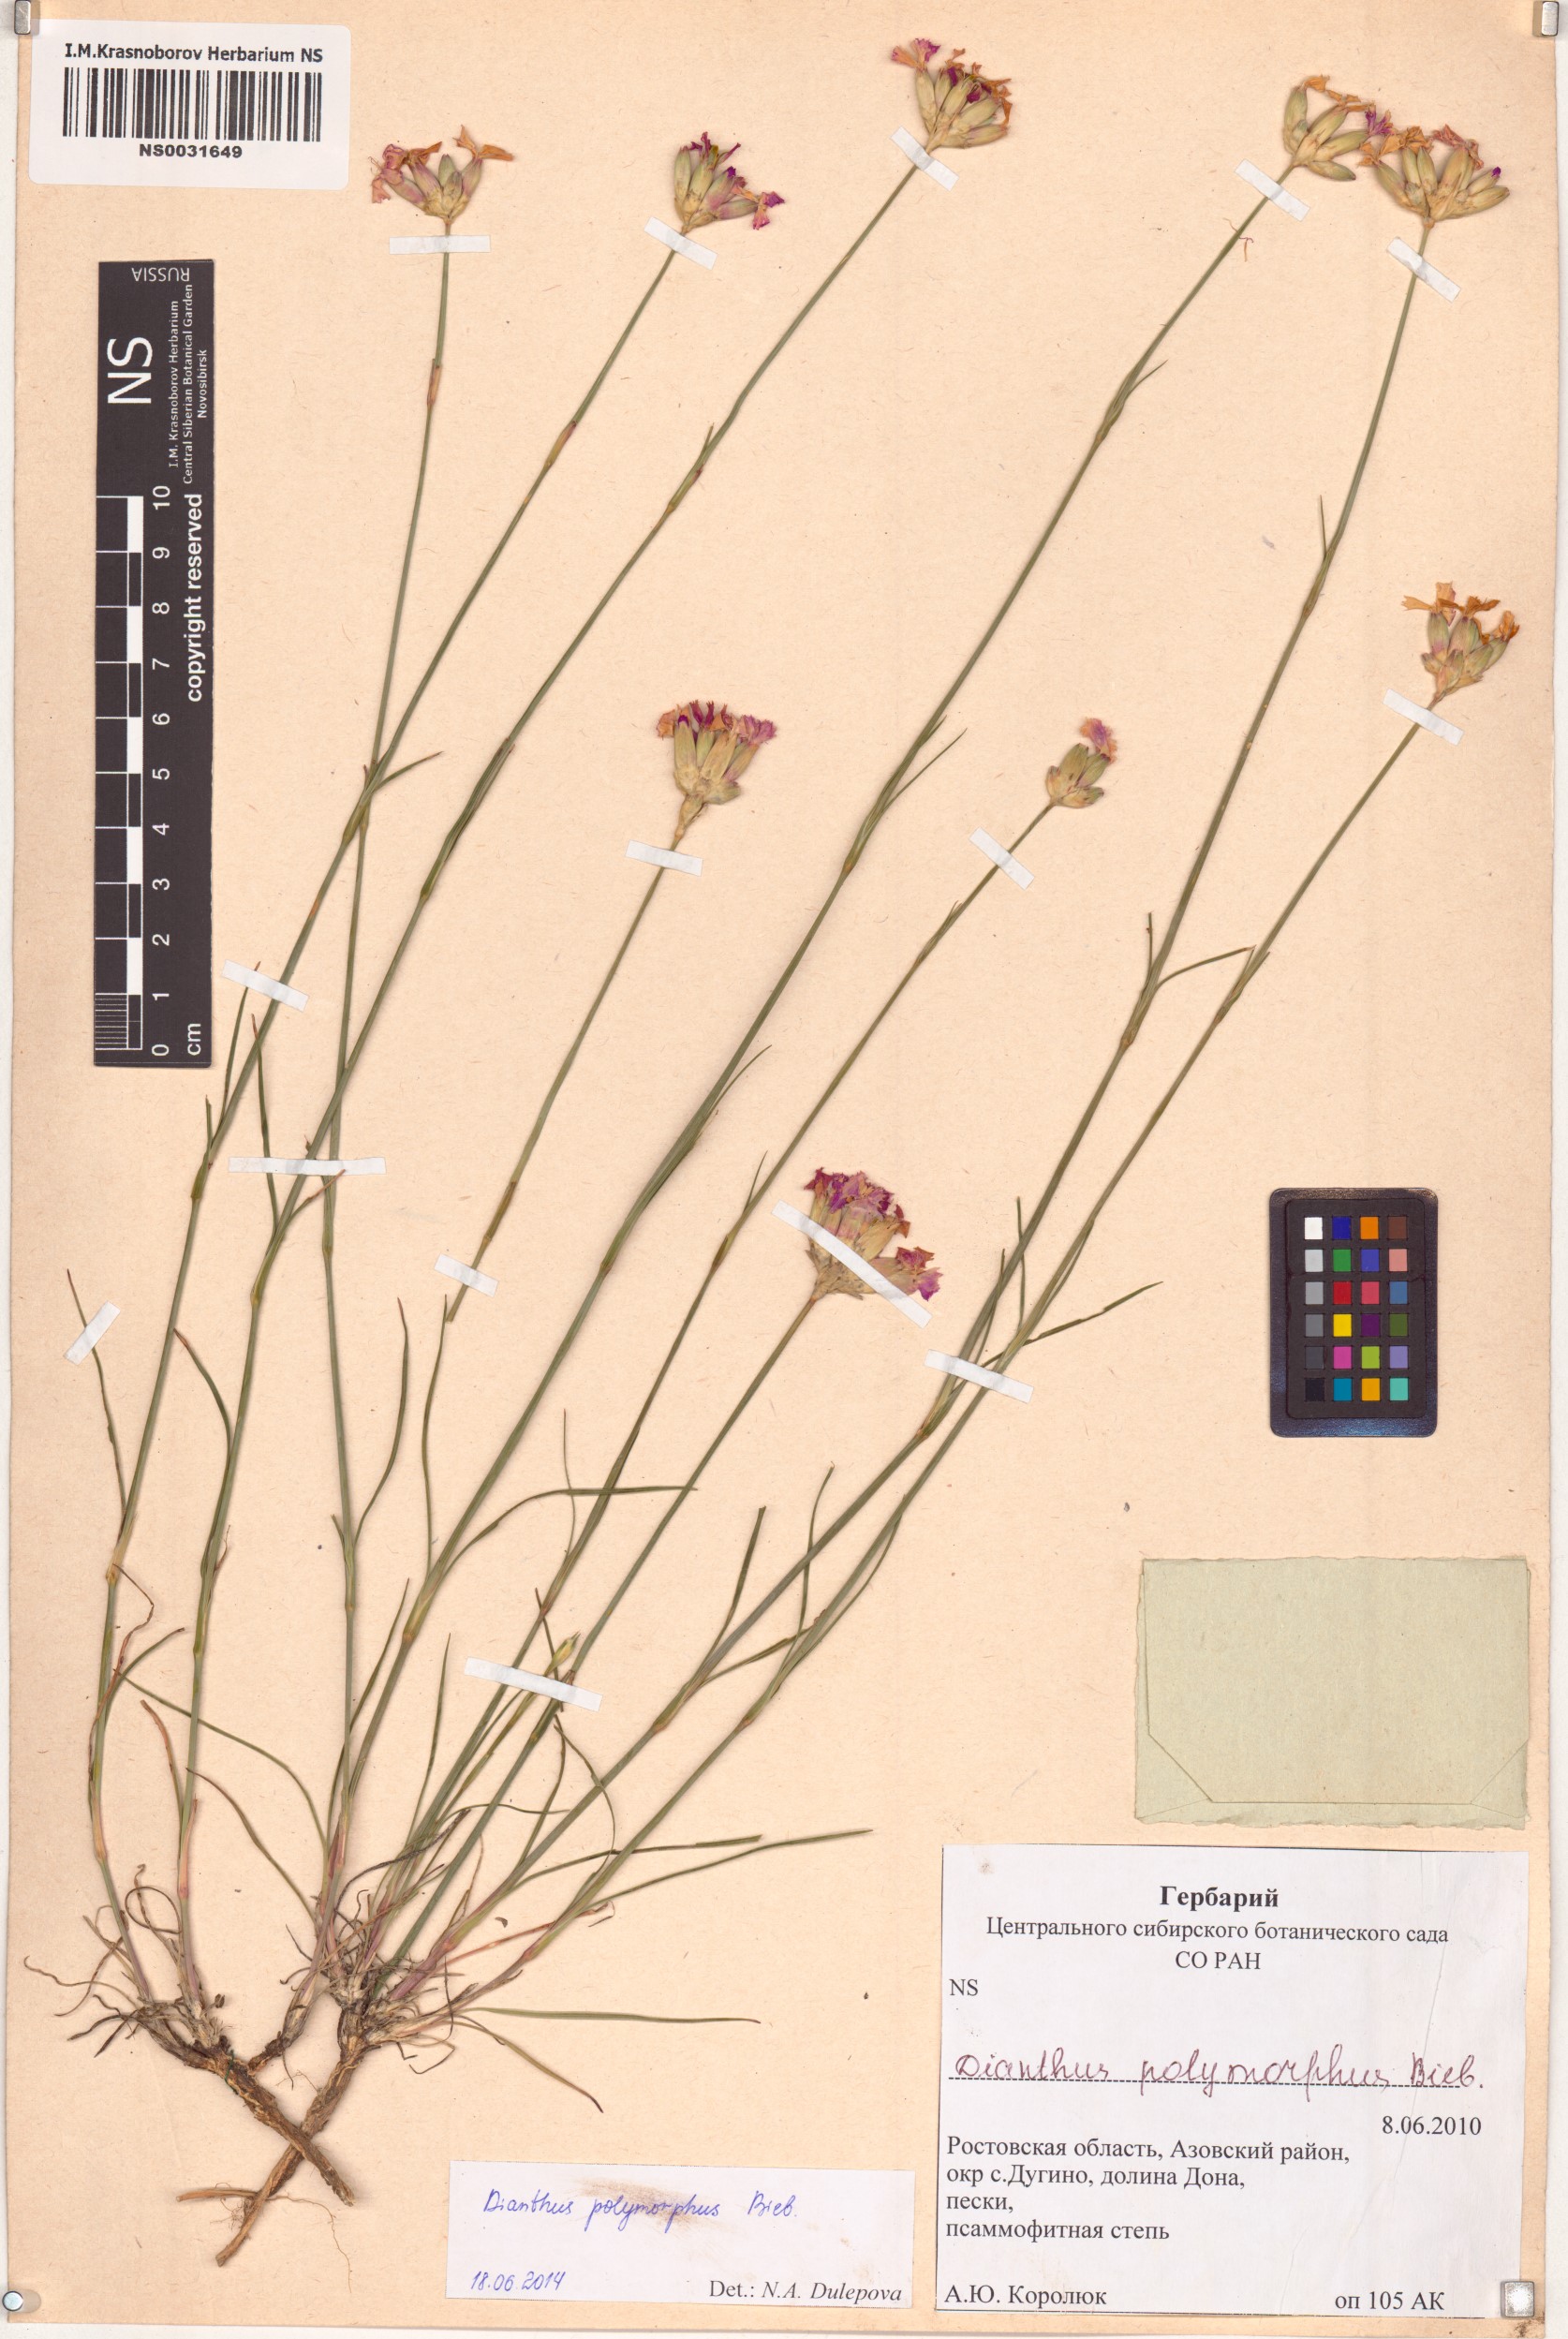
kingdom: Plantae
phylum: Tracheophyta
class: Magnoliopsida
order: Caryophyllales
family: Caryophyllaceae
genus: Dianthus
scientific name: Dianthus polymorphus
